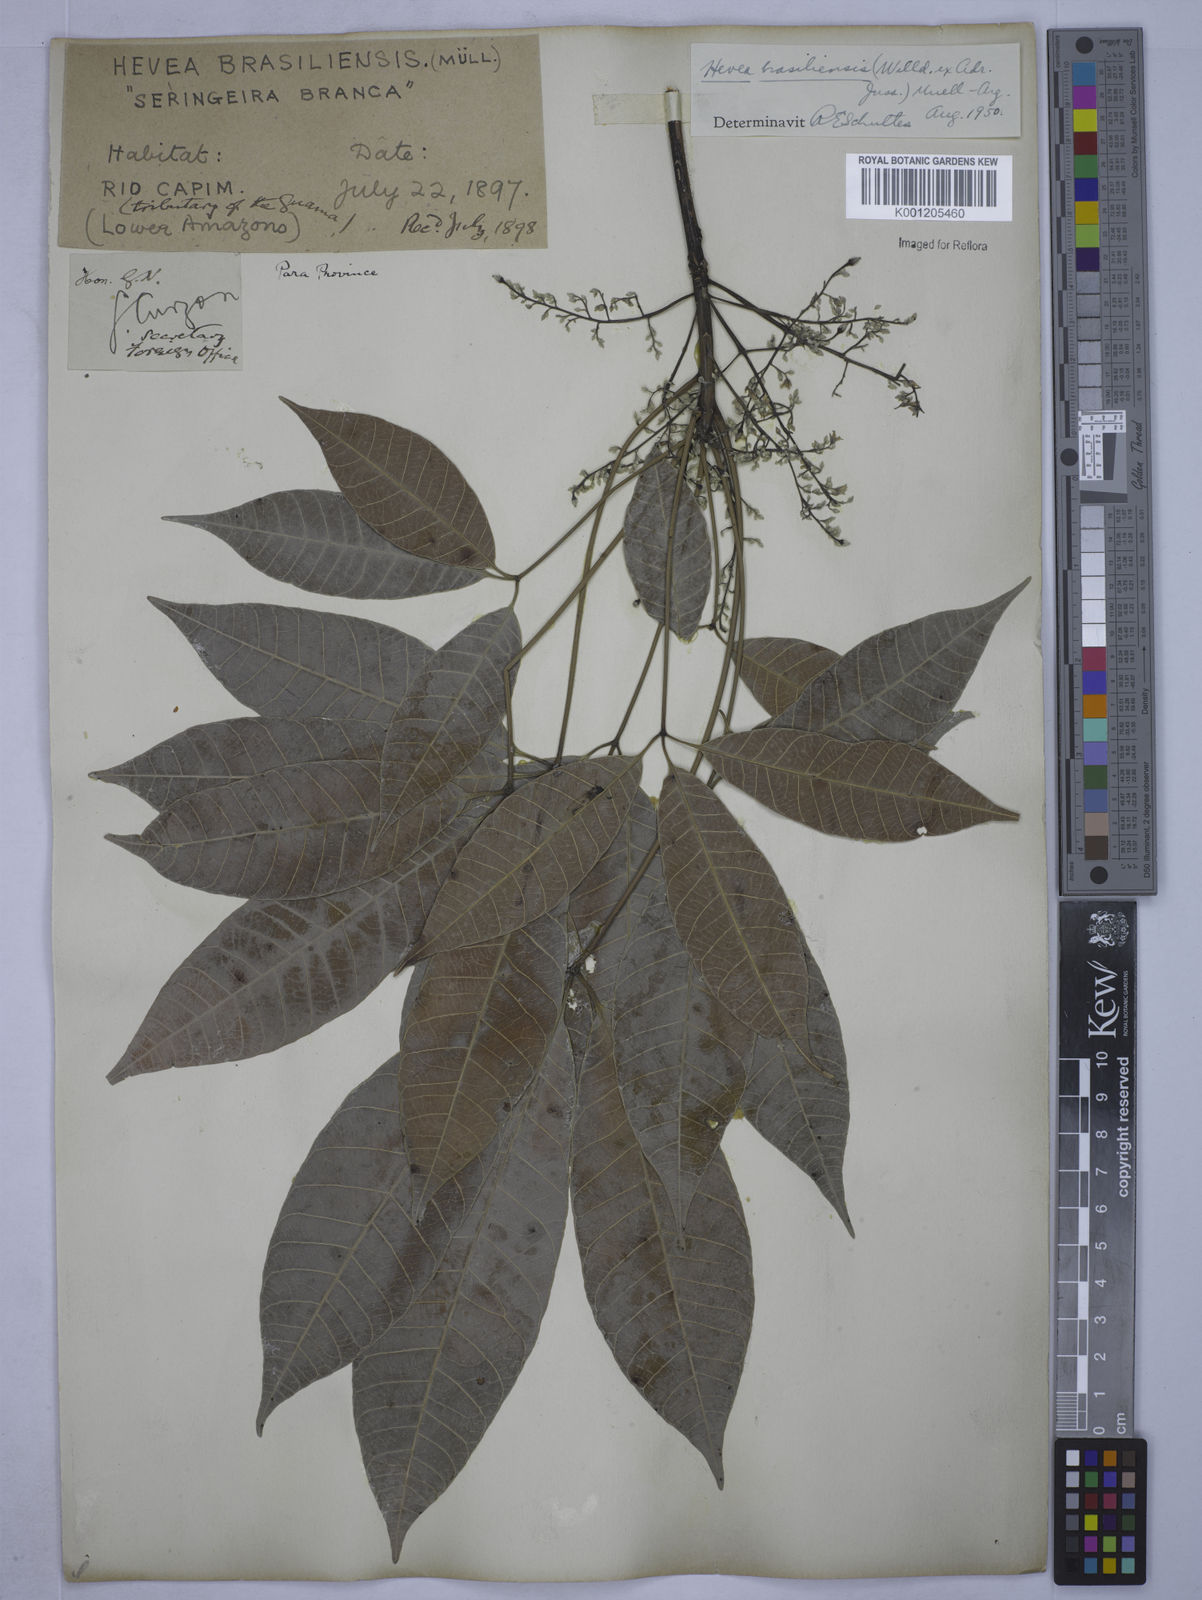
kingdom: Plantae
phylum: Tracheophyta
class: Magnoliopsida
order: Malpighiales
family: Euphorbiaceae
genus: Hevea
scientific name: Hevea
